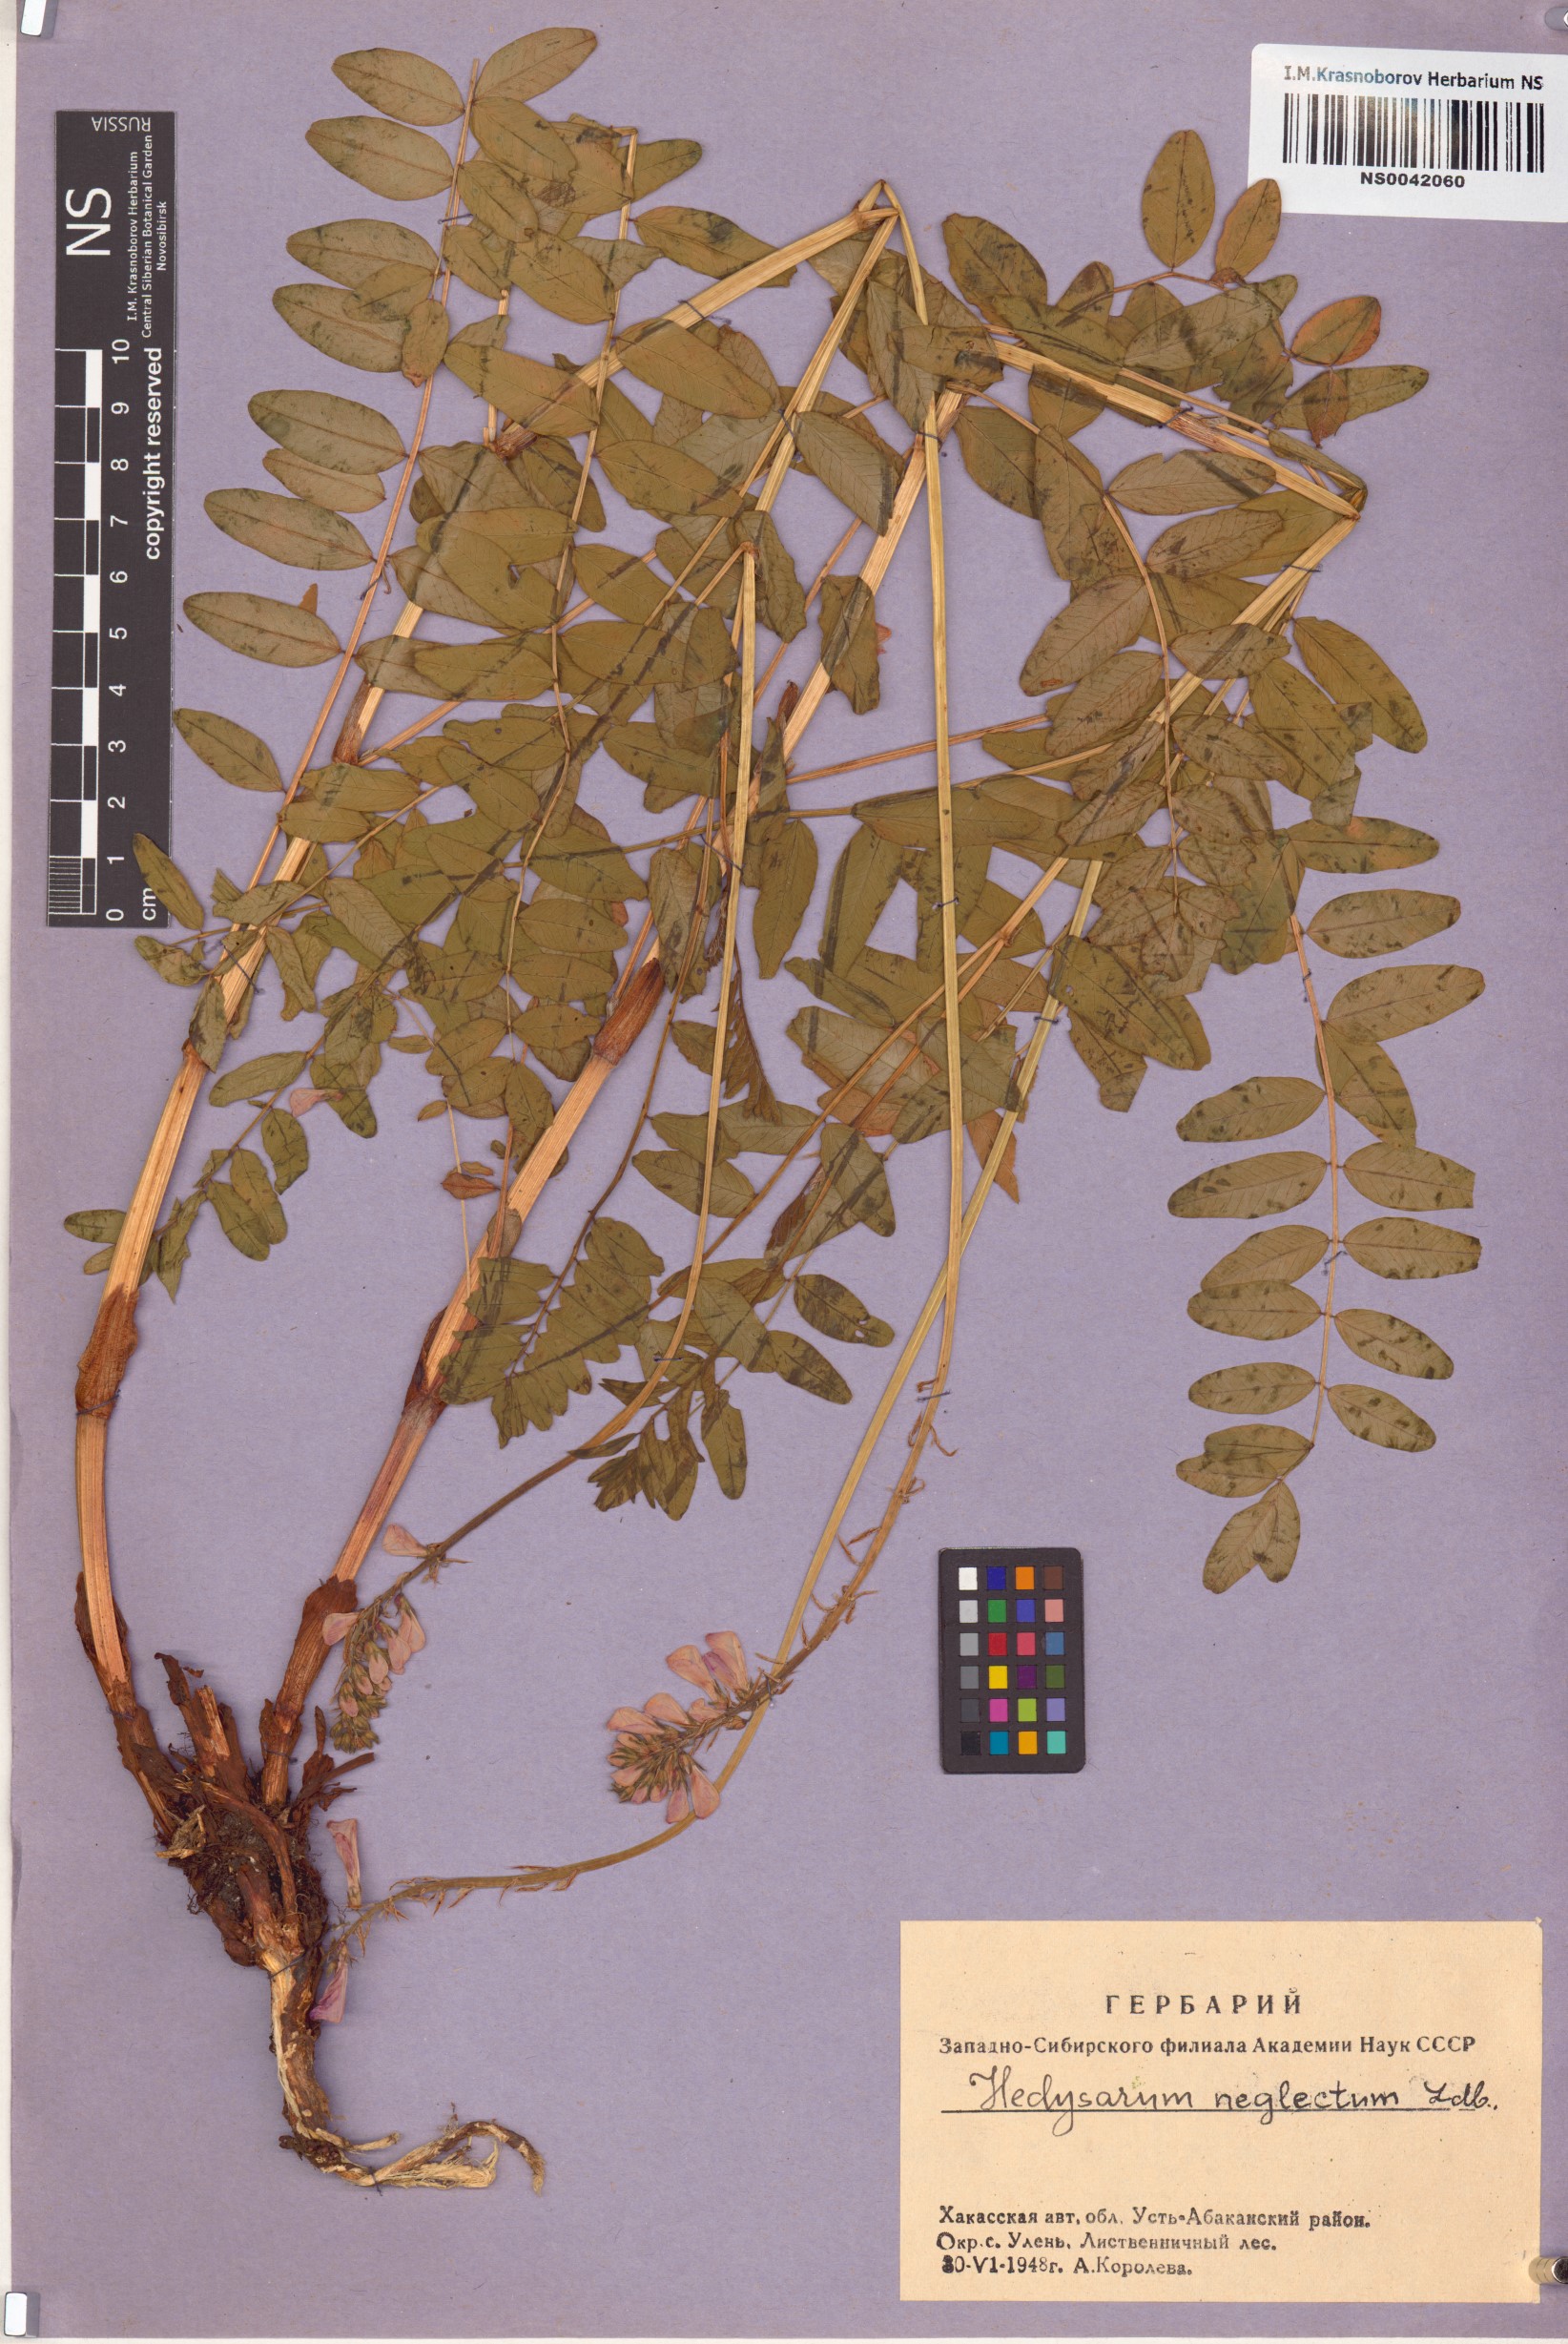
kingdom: Plantae
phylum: Tracheophyta
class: Magnoliopsida
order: Fabales
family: Fabaceae
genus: Hedysarum
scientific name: Hedysarum neglectum
